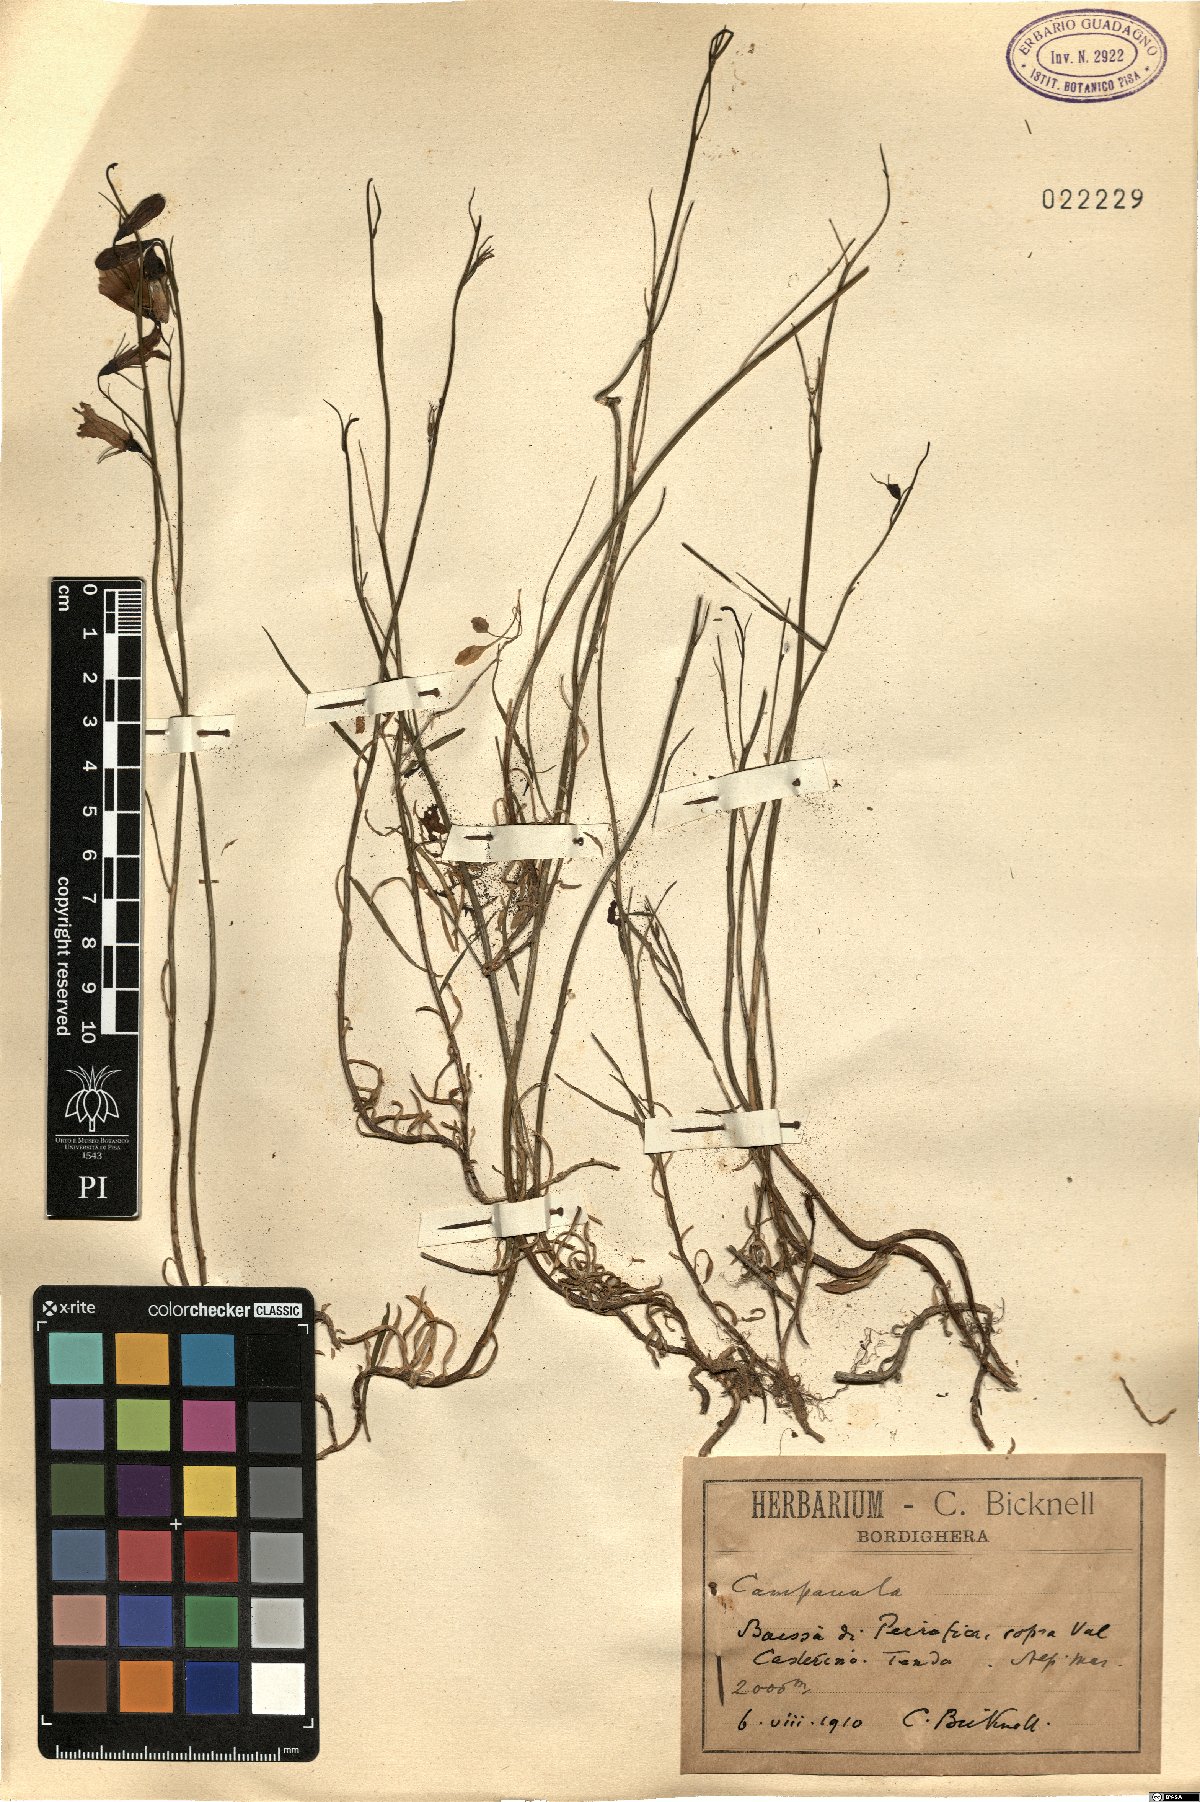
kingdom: Plantae
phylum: Tracheophyta
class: Magnoliopsida
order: Asterales
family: Campanulaceae
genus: Campanula
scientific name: Campanula
